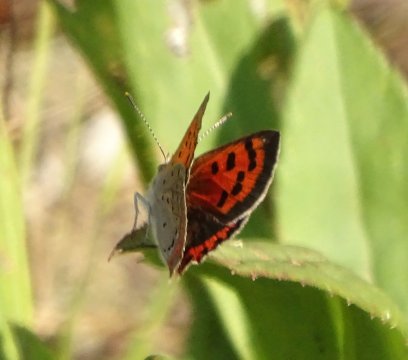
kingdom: Animalia
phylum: Arthropoda
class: Insecta
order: Lepidoptera
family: Lycaenidae
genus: Lycaena
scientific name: Lycaena phlaeas
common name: American Copper
